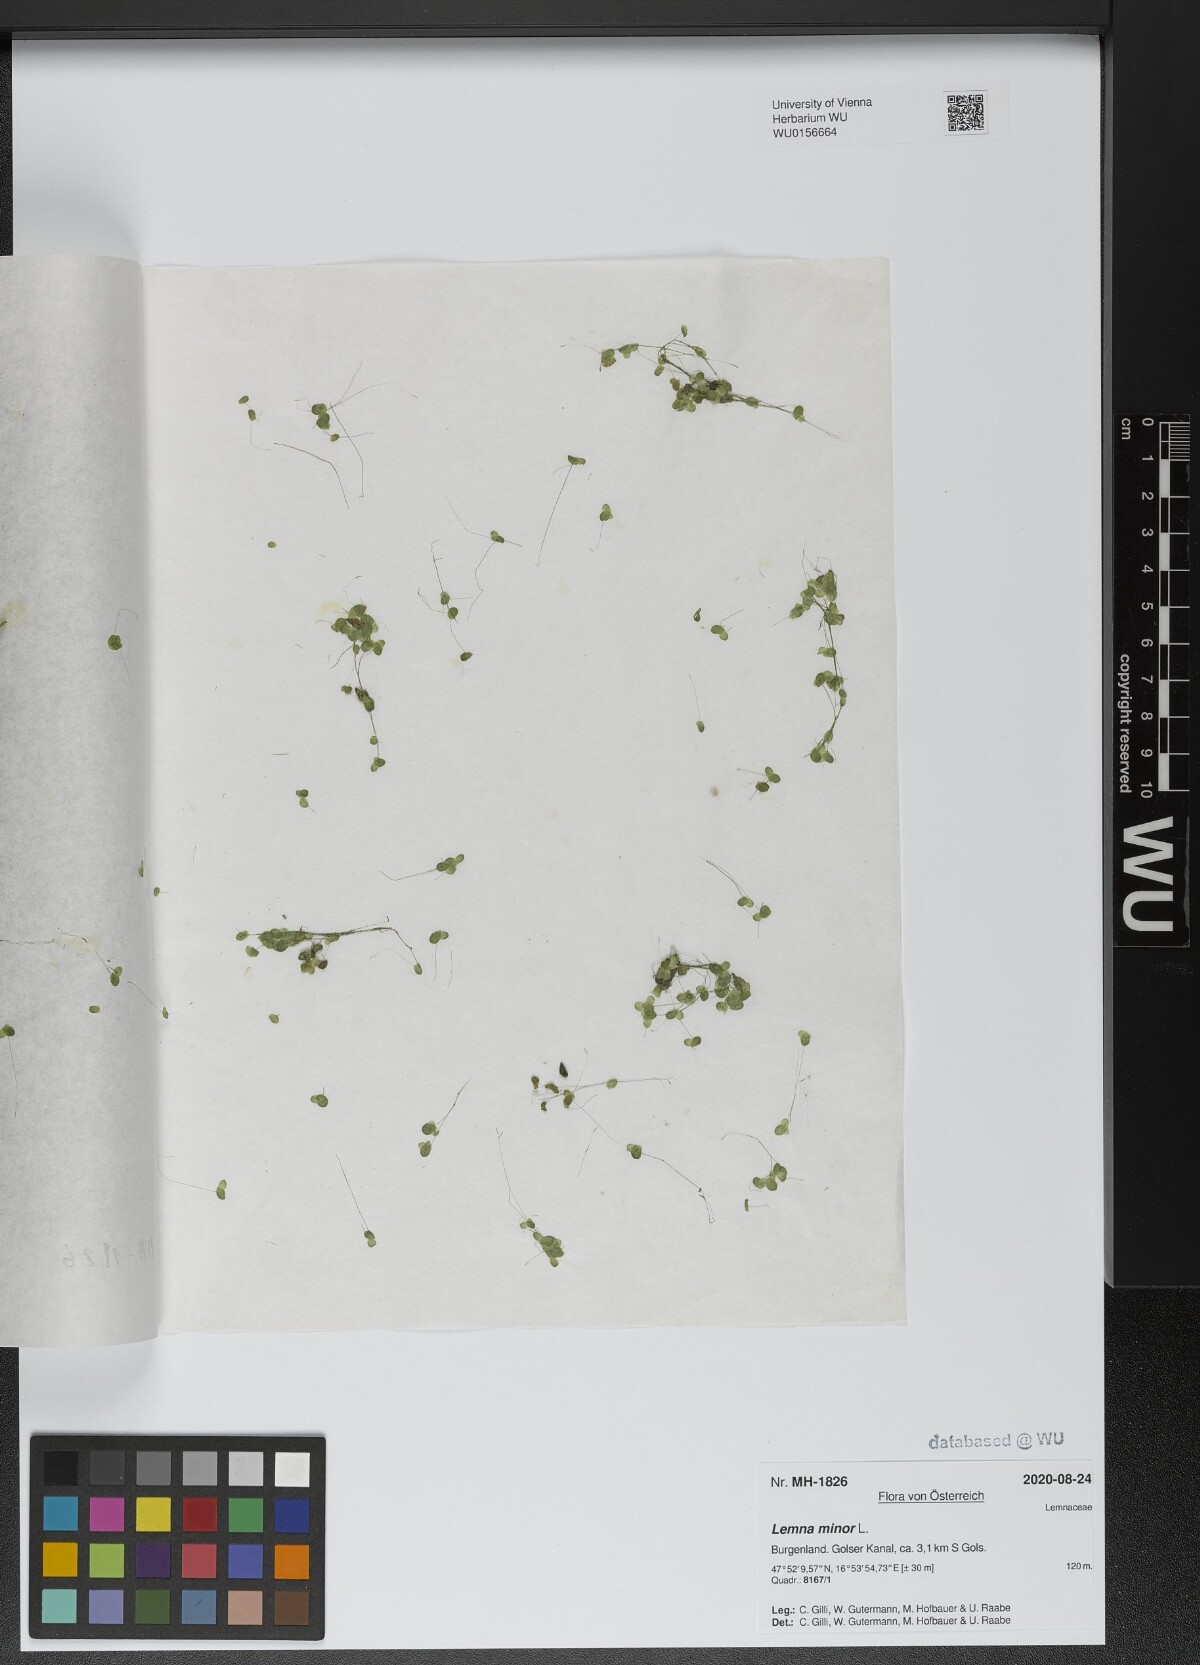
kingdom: Plantae
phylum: Tracheophyta
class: Liliopsida
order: Alismatales
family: Araceae
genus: Lemna
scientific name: Lemna minor
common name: Common duckweed
